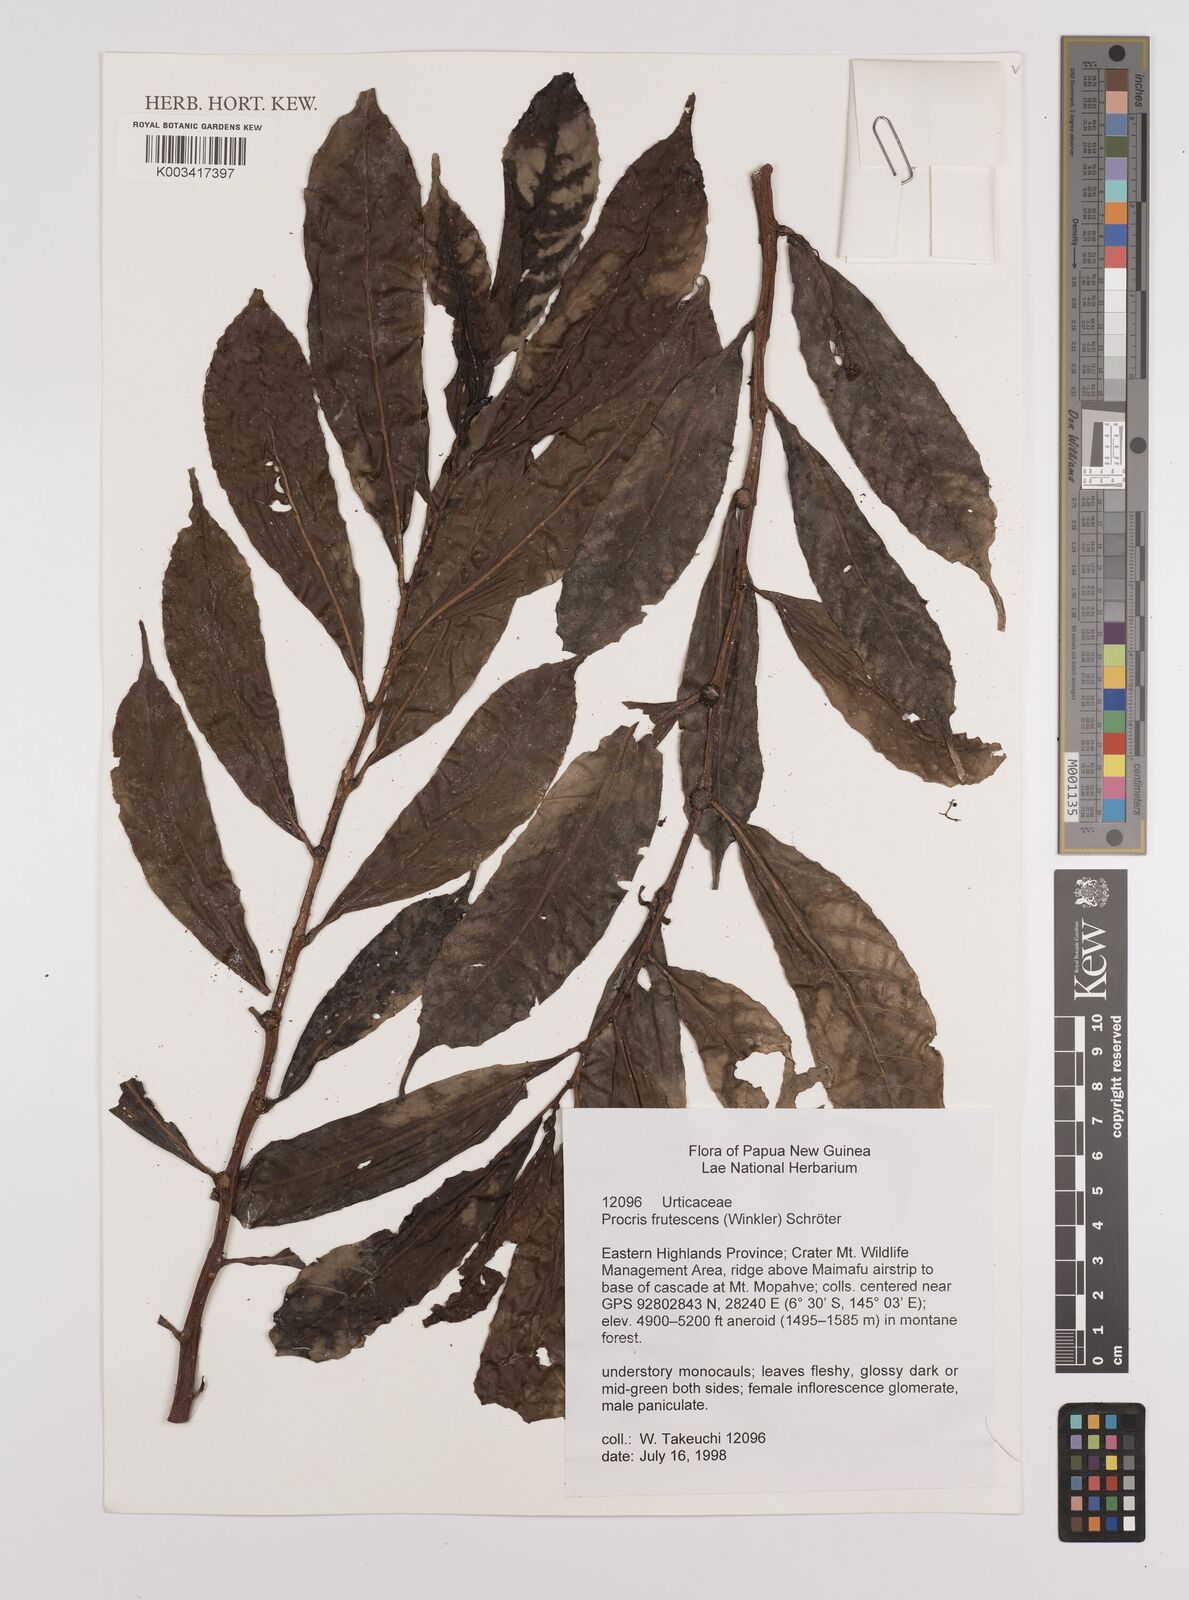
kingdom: Plantae
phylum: Tracheophyta
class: Magnoliopsida
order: Rosales
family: Urticaceae
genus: Procris
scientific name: Procris frutescens
